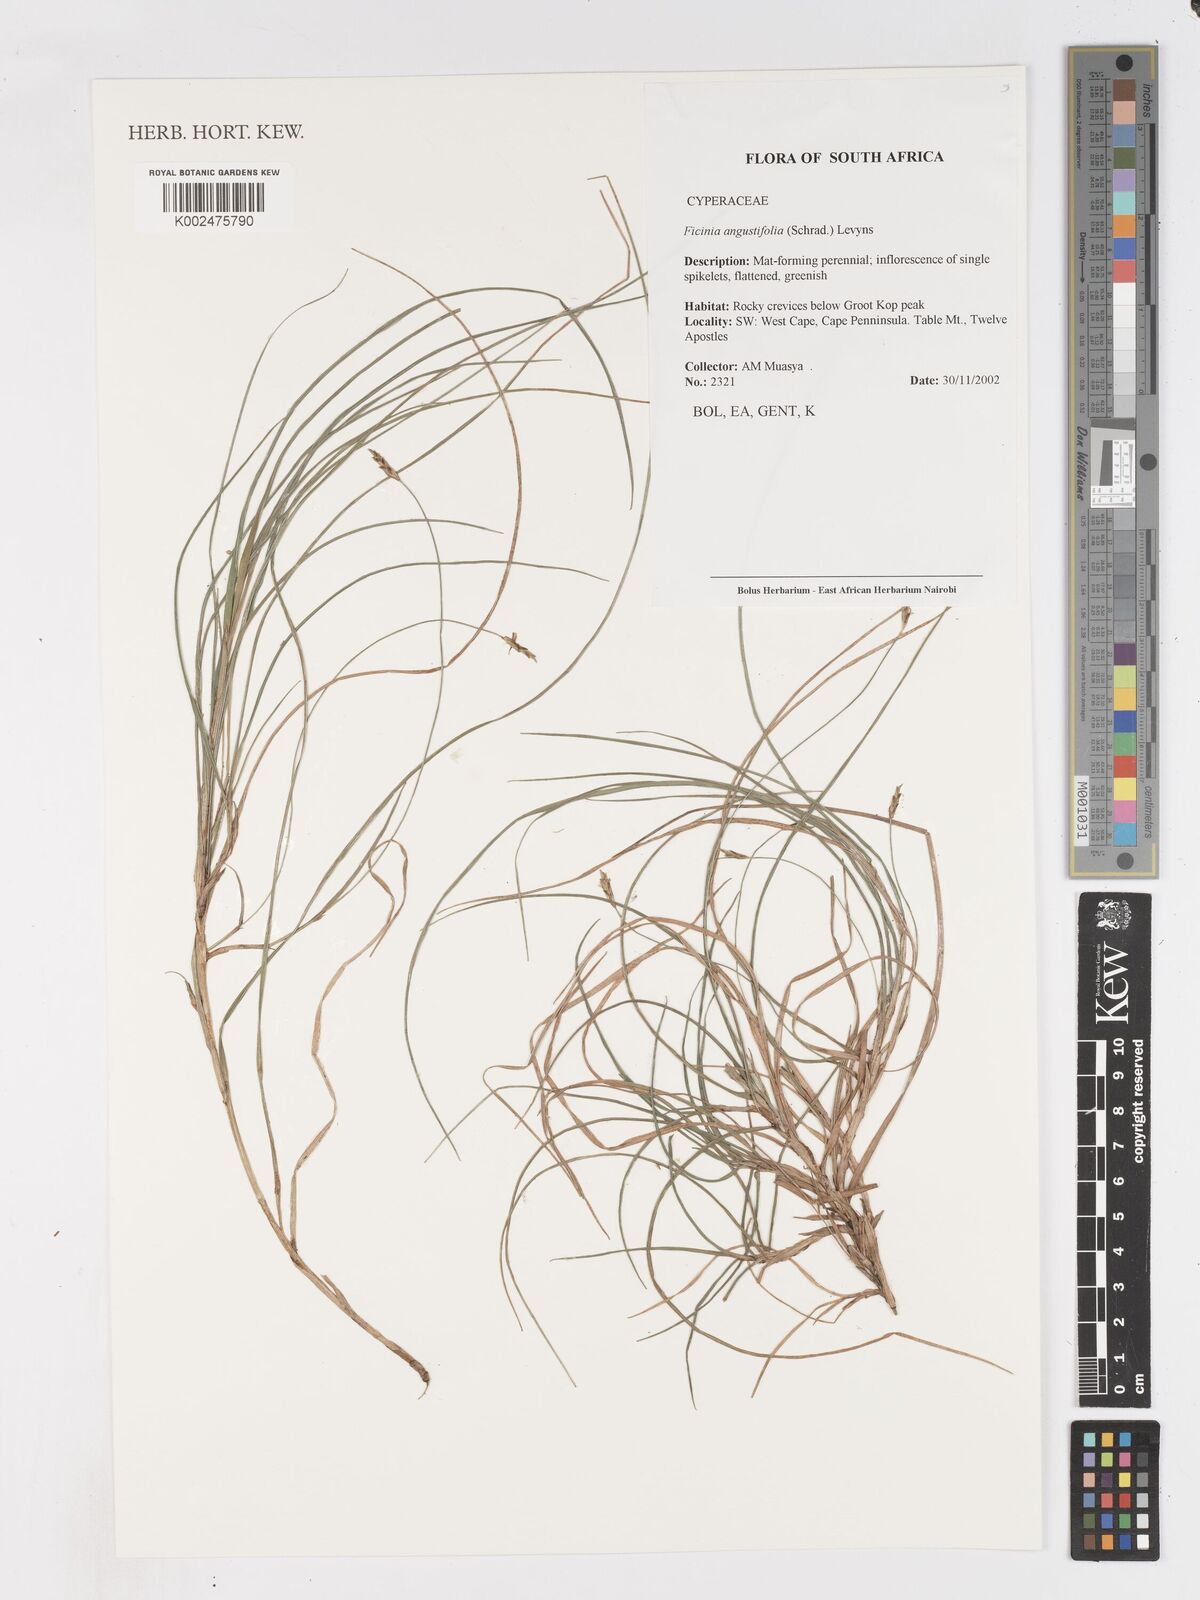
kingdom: Plantae
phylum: Tracheophyta
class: Liliopsida
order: Poales
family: Cyperaceae
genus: Ficinia
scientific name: Ficinia angustifolia
